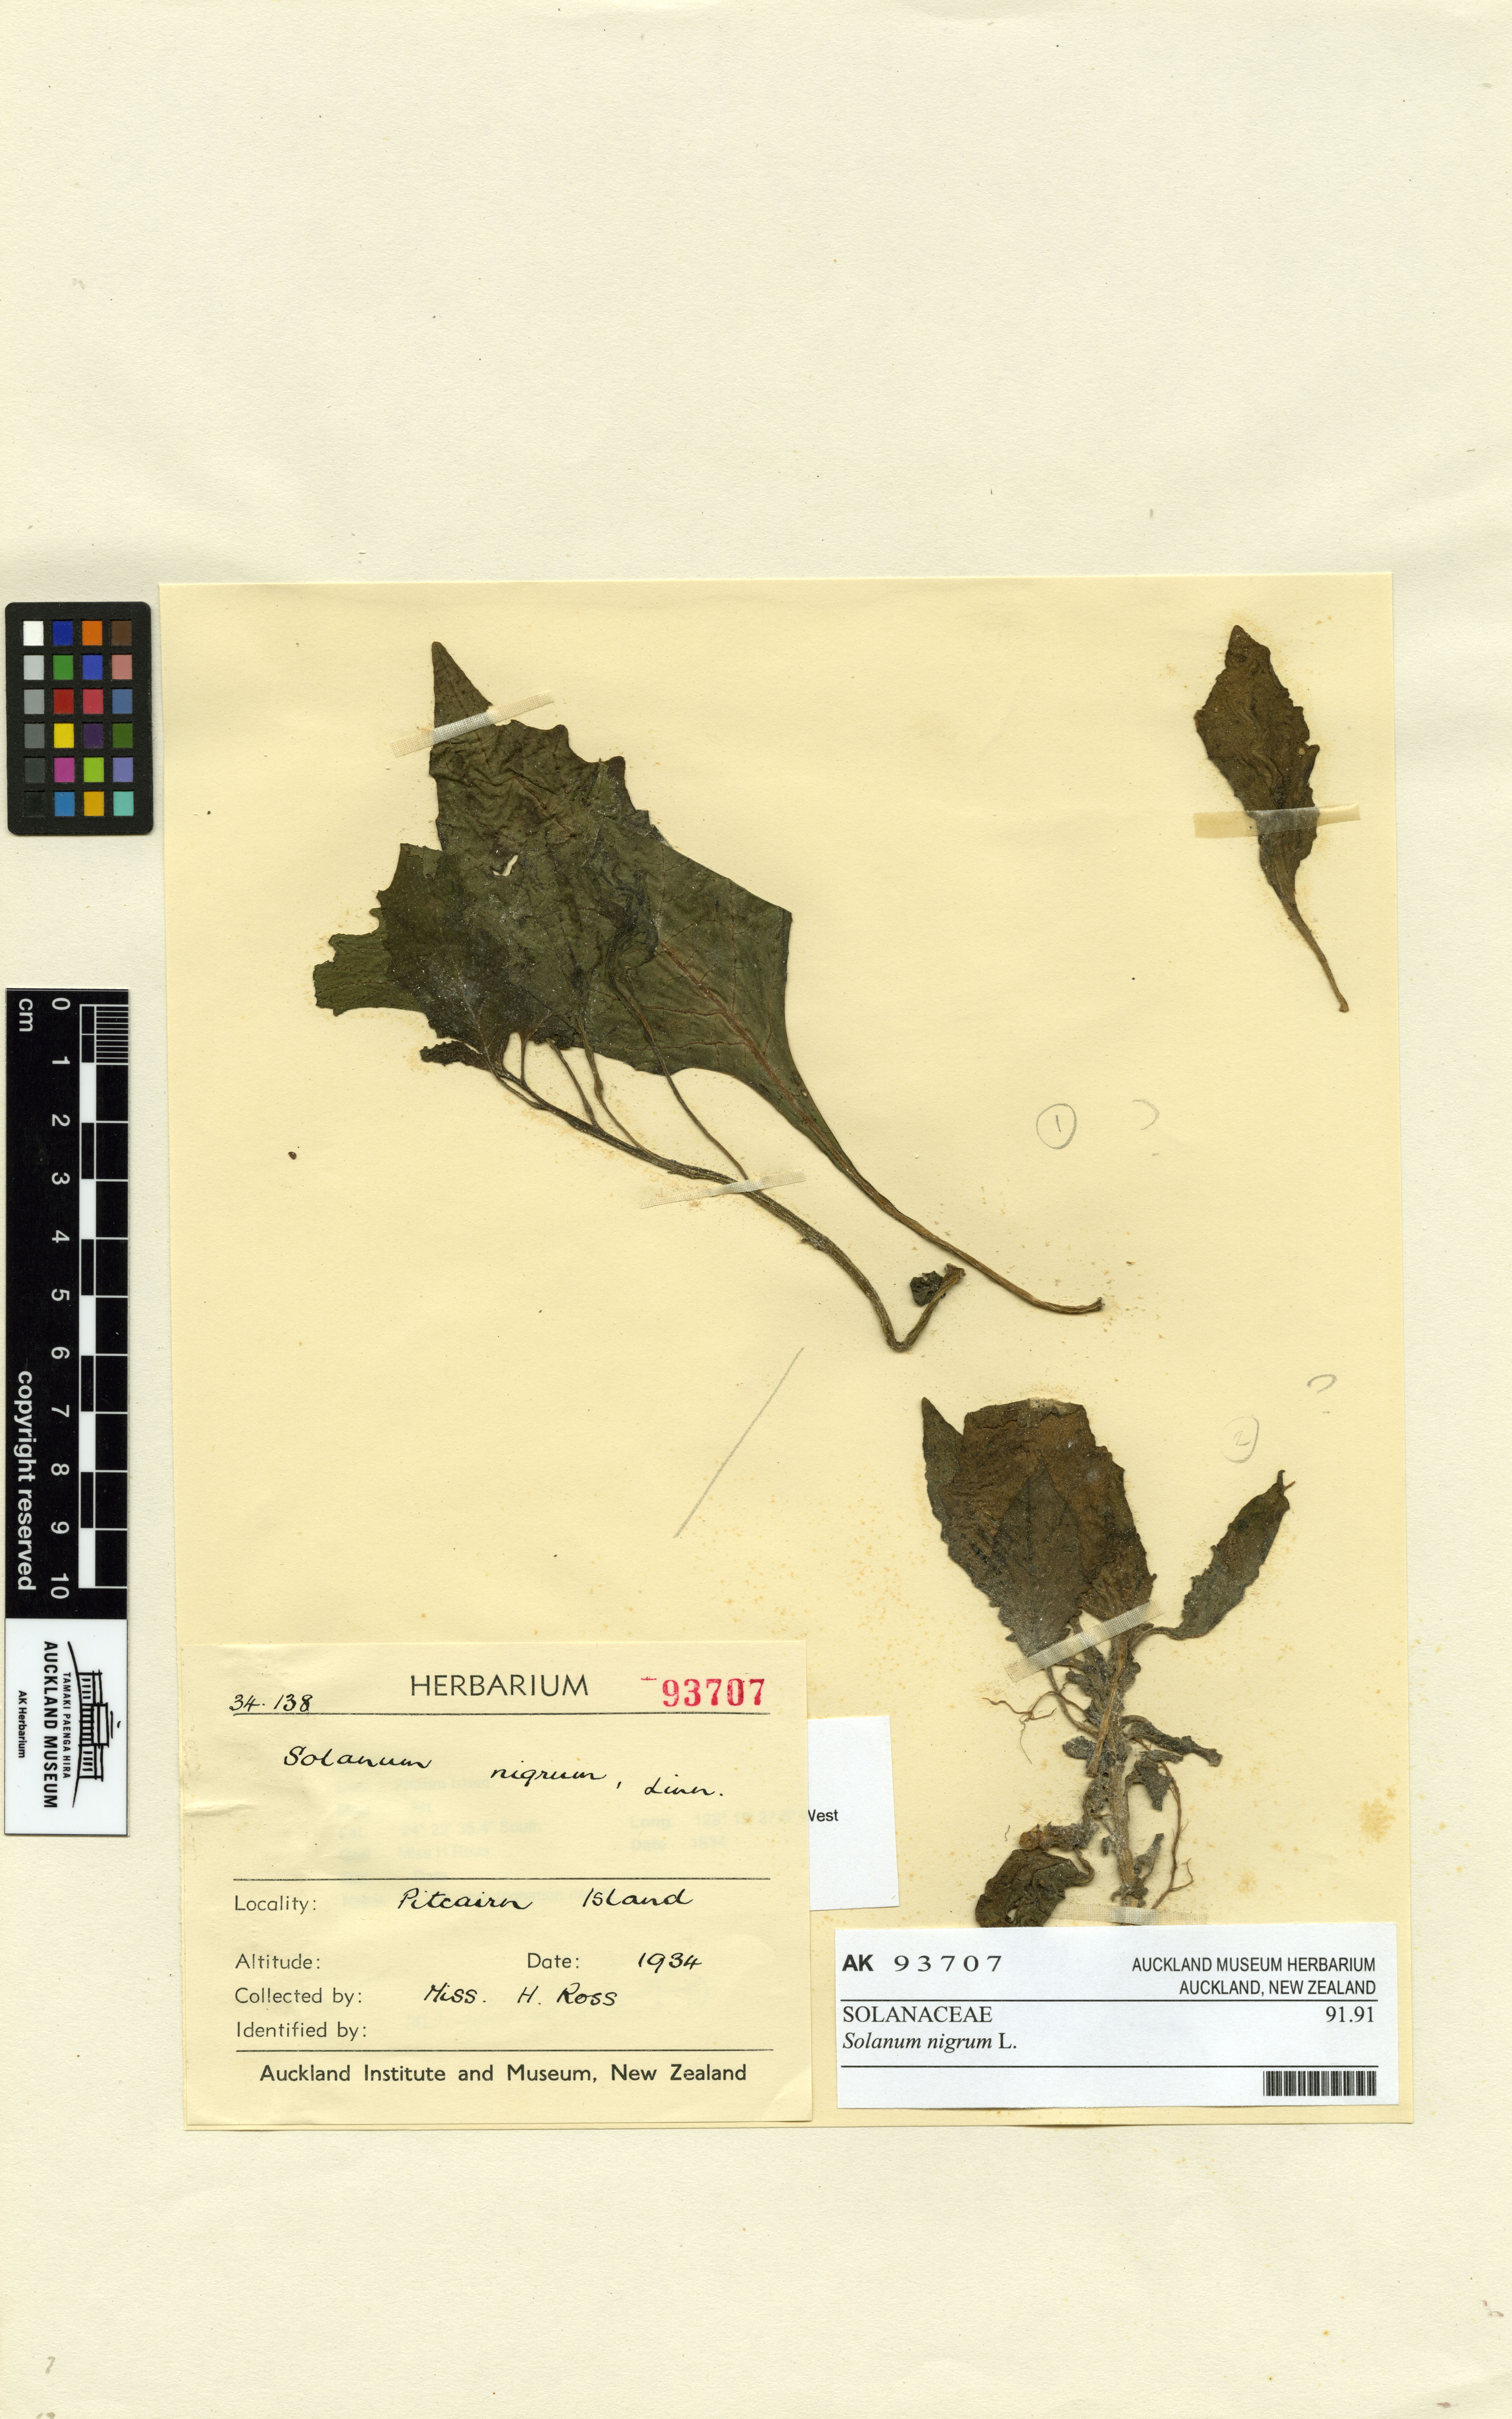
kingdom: Plantae
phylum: Tracheophyta
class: Magnoliopsida
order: Solanales
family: Solanaceae
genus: Solanum
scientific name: Solanum opacum
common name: Green-berry nightshade
